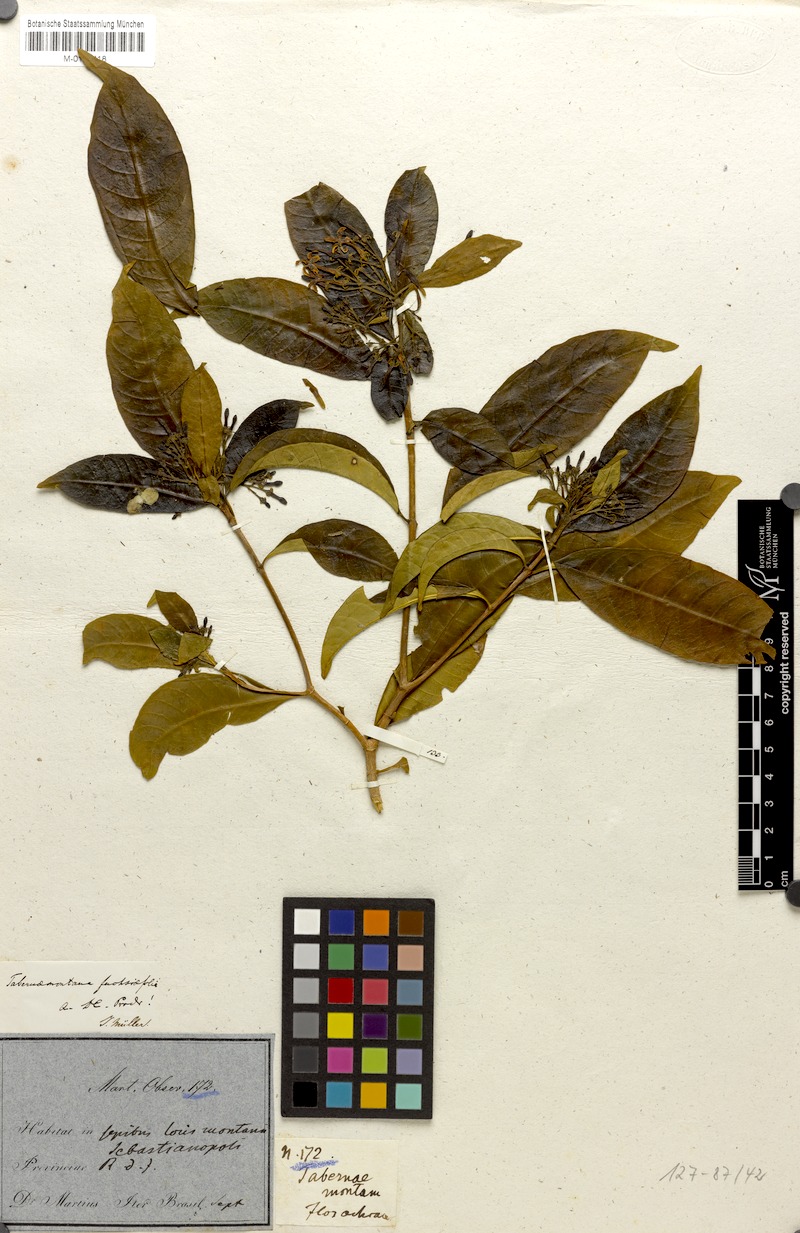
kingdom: Plantae
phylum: Tracheophyta
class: Magnoliopsida
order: Gentianales
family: Apocynaceae
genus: Tabernaemontana
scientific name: Tabernaemontana hystrix
